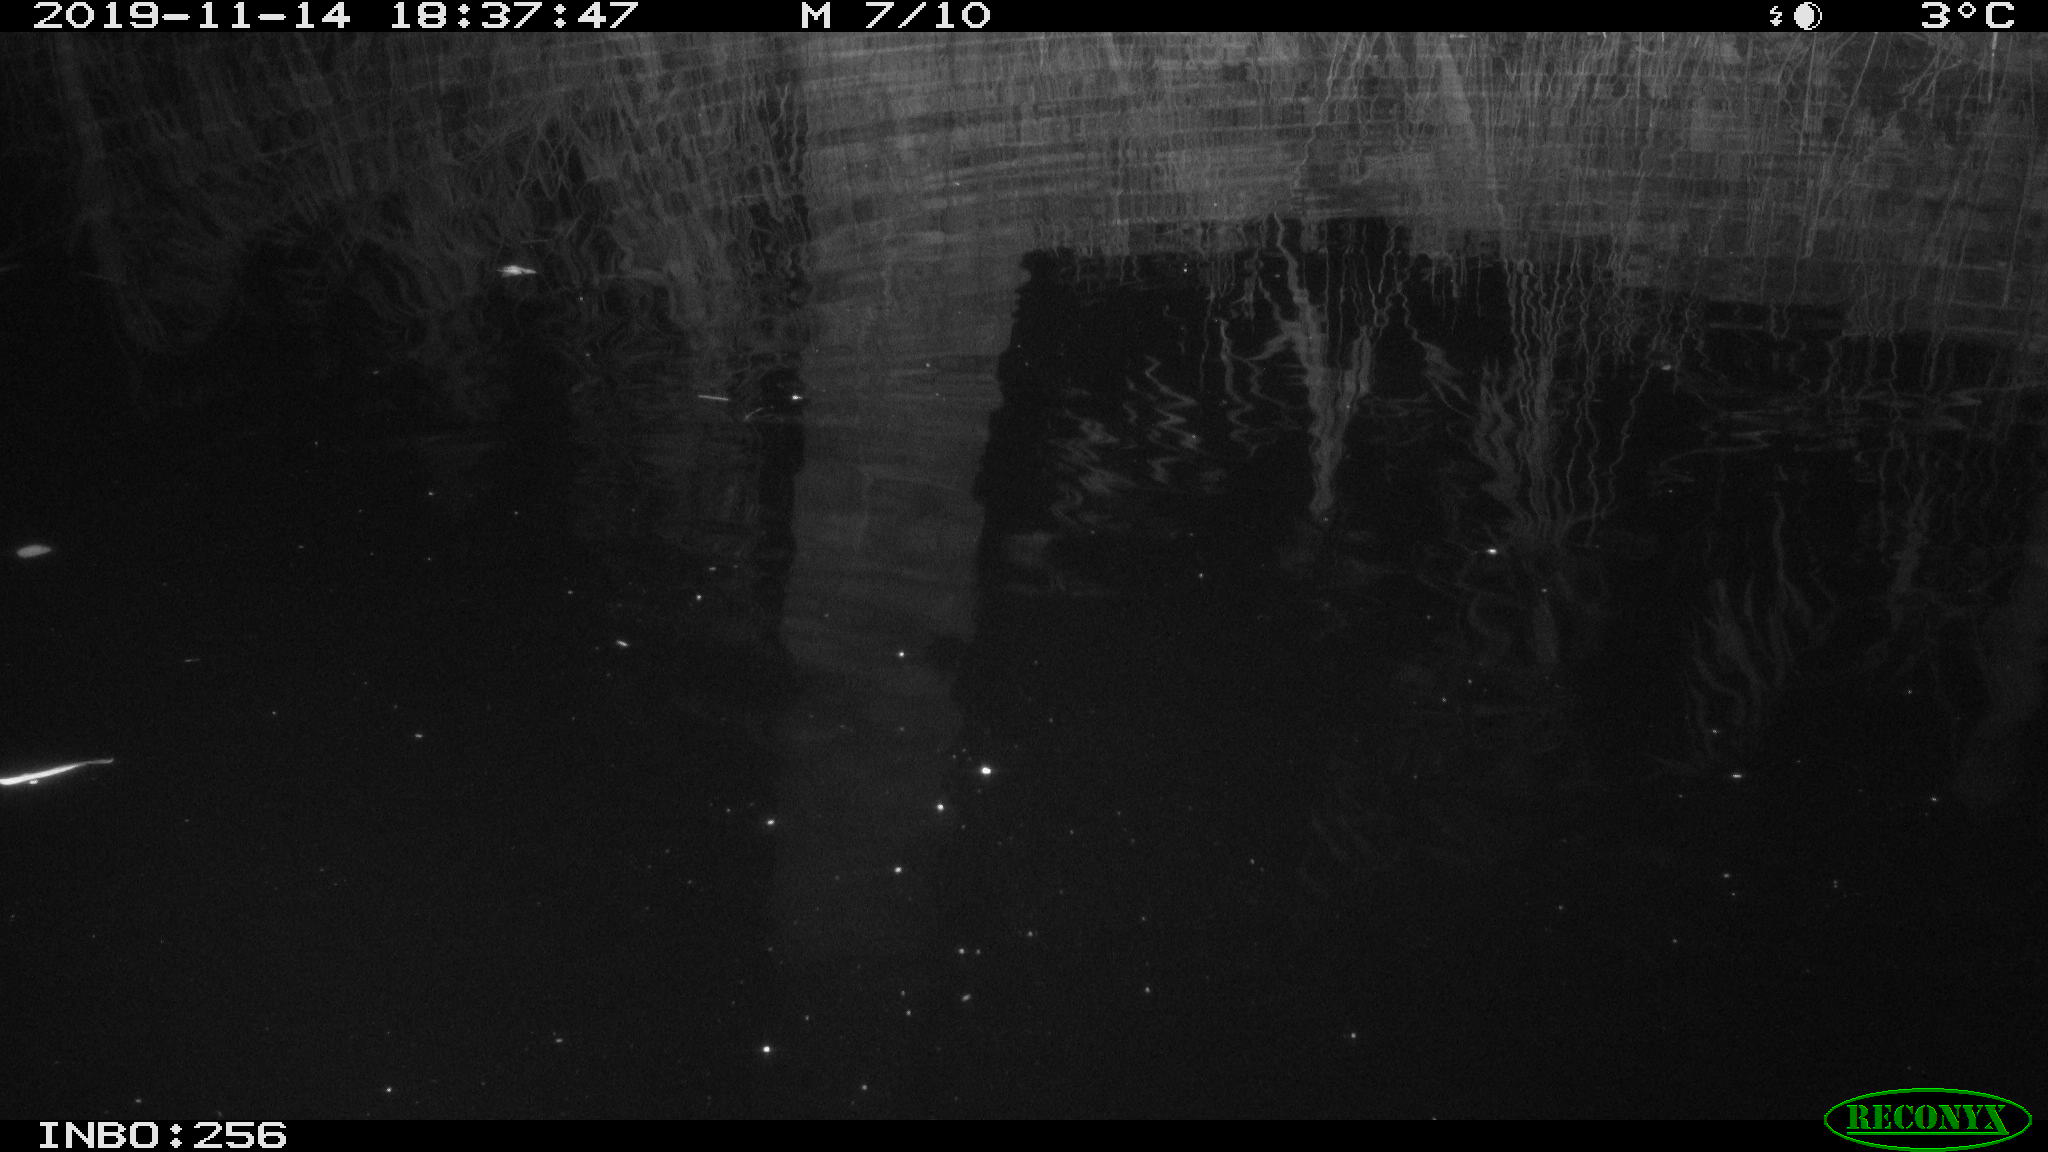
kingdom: Animalia
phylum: Chordata
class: Mammalia
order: Rodentia
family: Muridae
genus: Rattus
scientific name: Rattus norvegicus
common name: Brown rat
